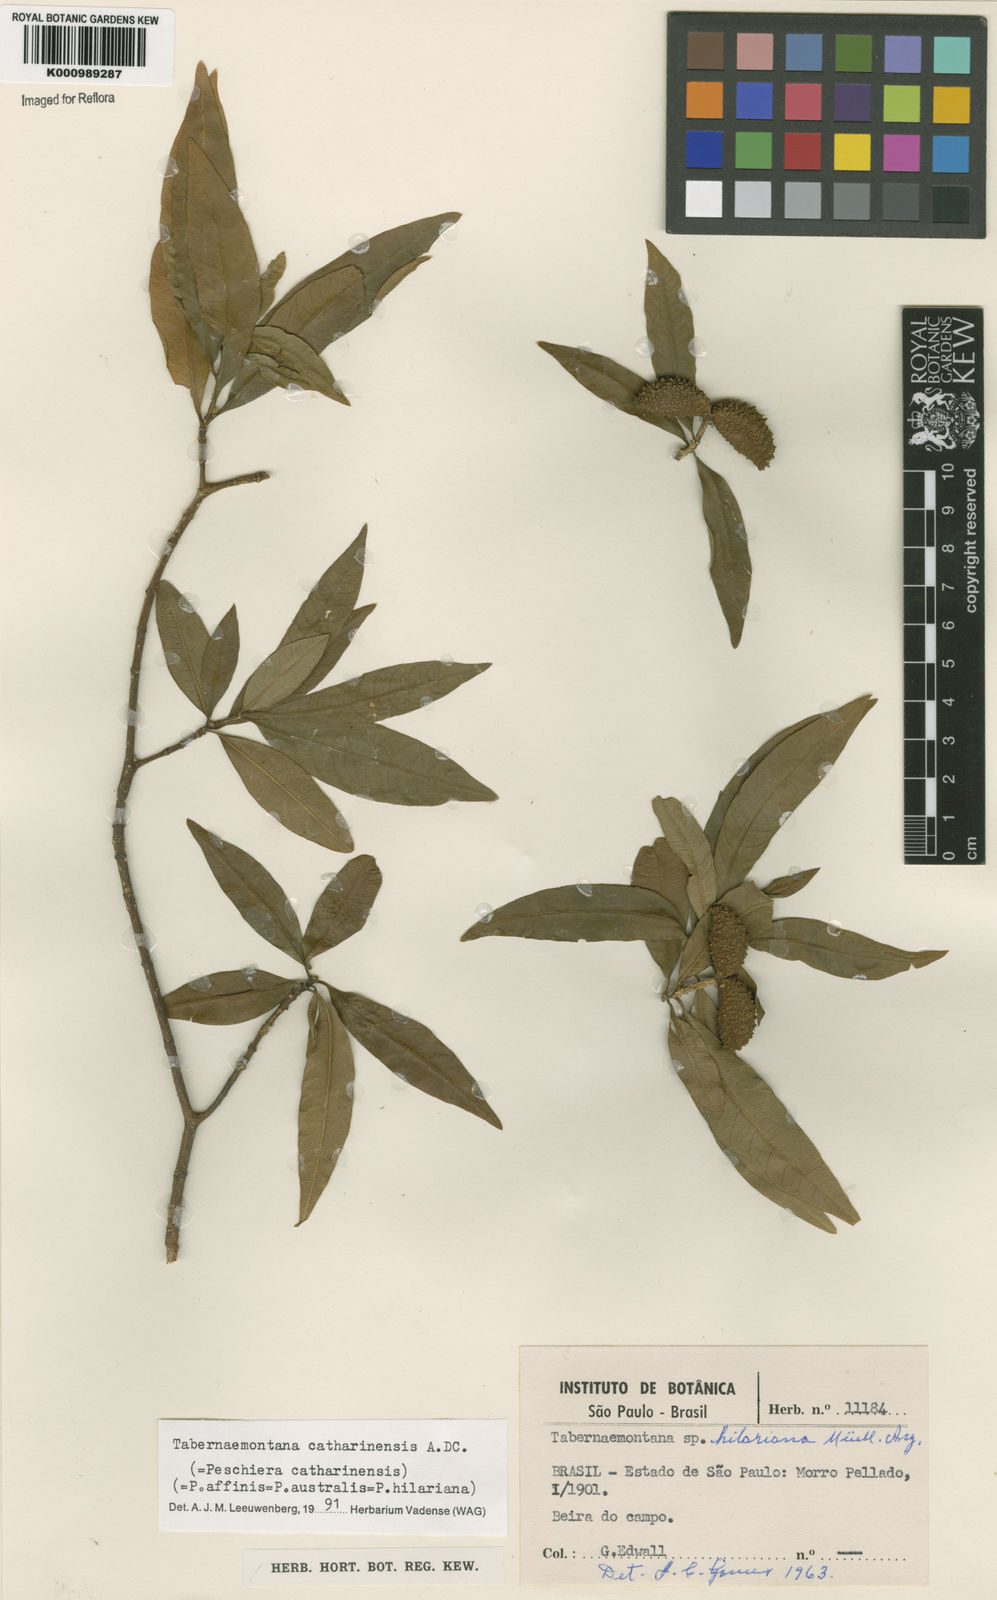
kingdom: Plantae
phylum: Tracheophyta
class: Magnoliopsida
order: Gentianales
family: Apocynaceae
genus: Tabernaemontana
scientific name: Tabernaemontana catharinensis
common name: Pinwheel-flower
